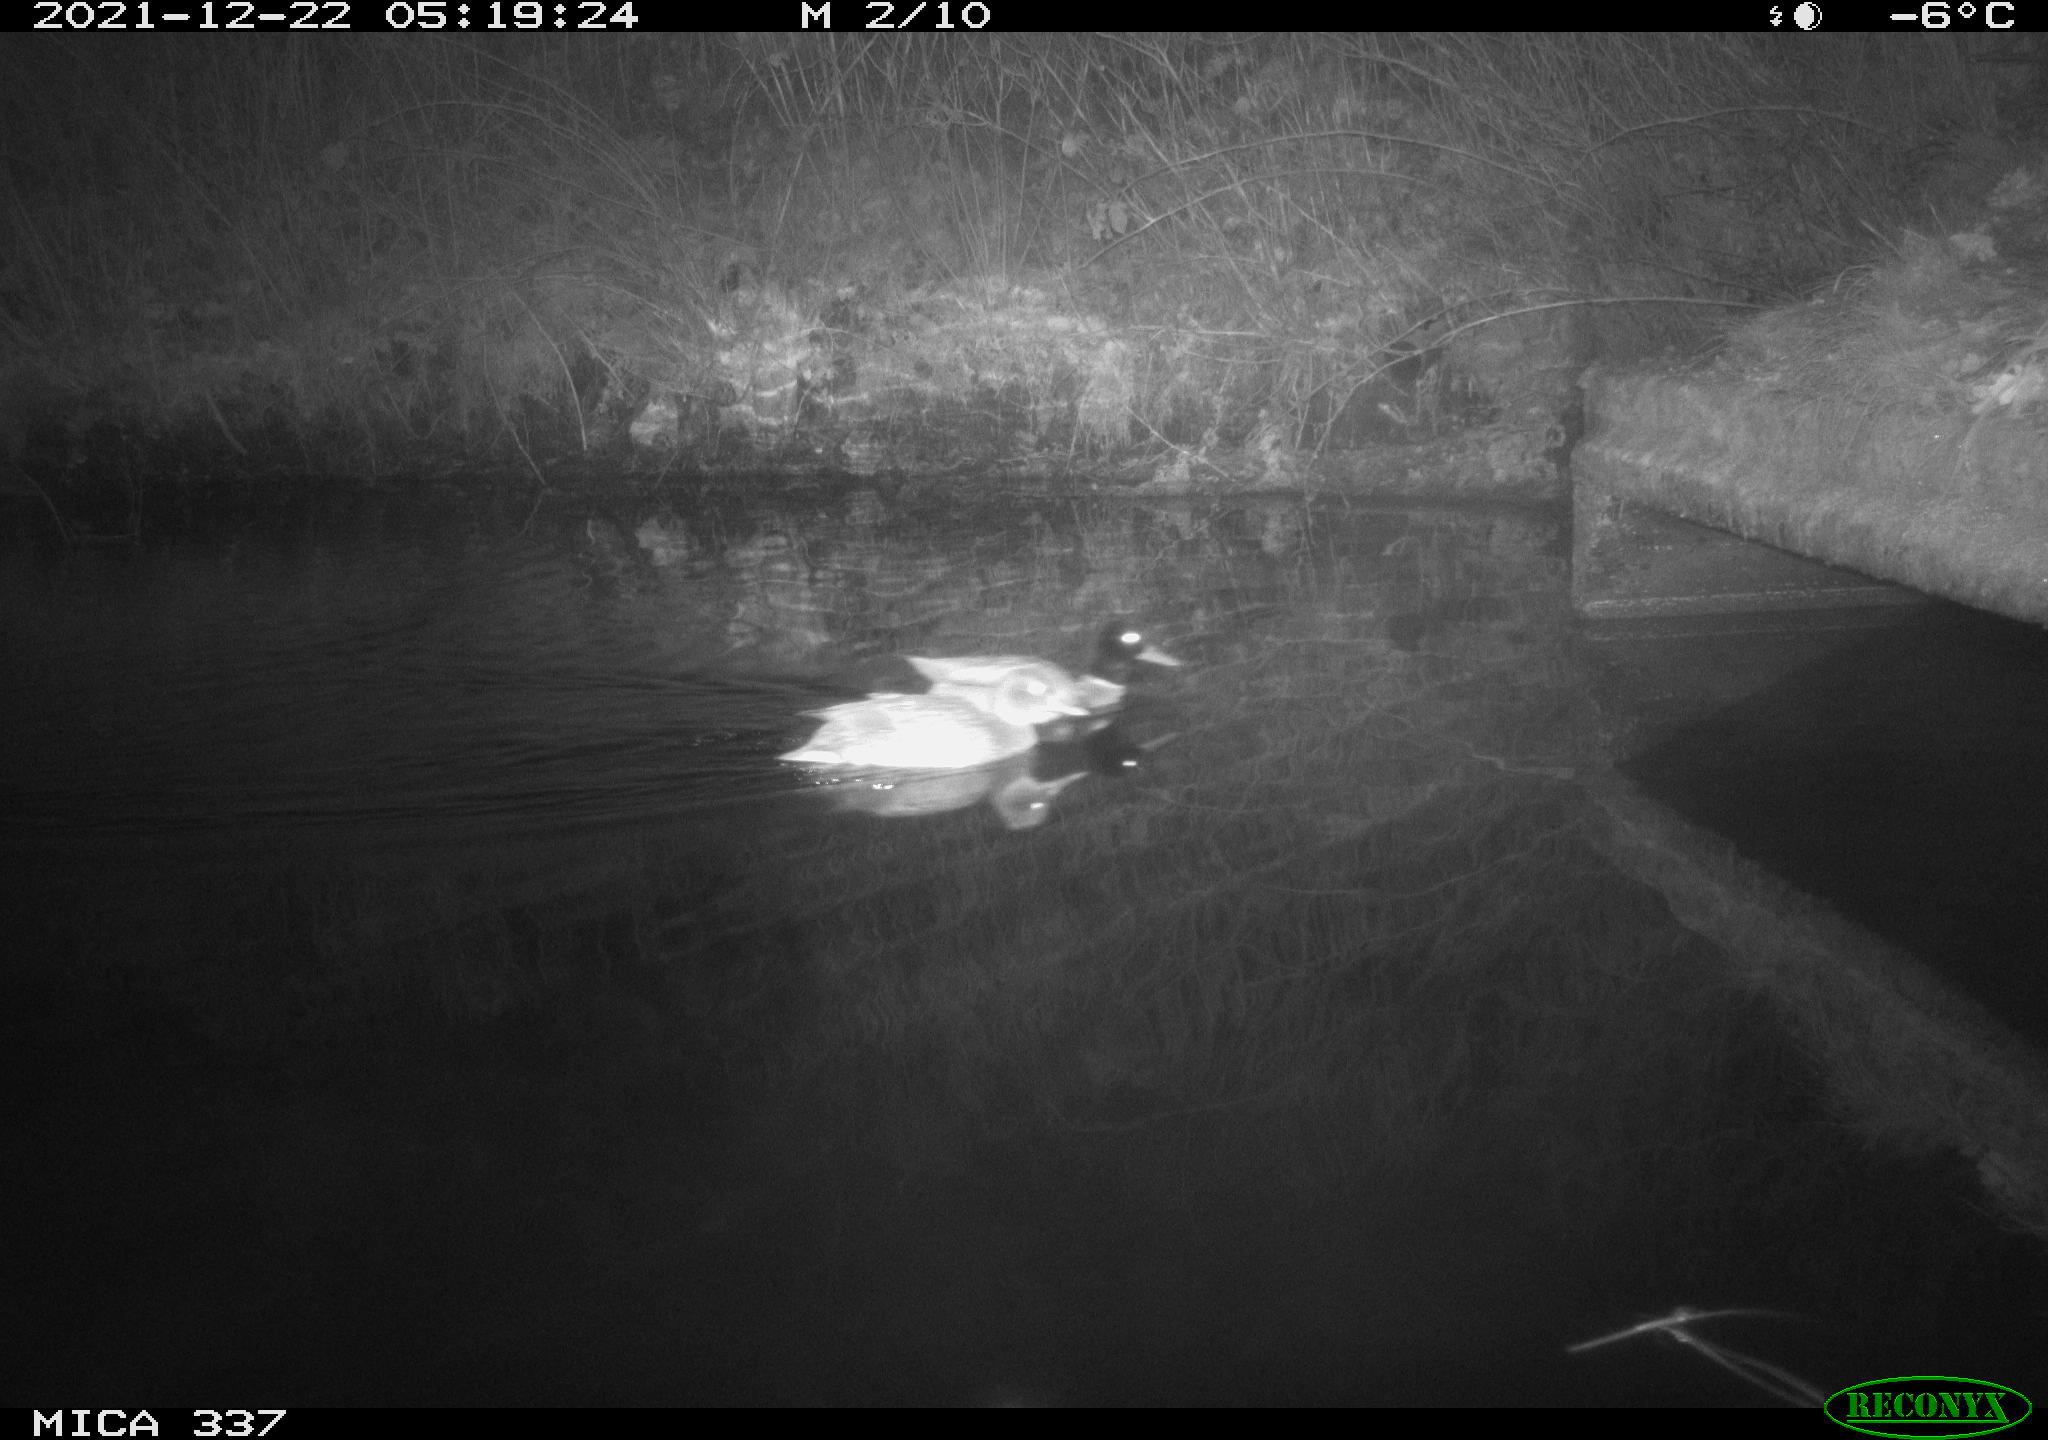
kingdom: Animalia
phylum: Chordata
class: Aves
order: Anseriformes
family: Anatidae
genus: Anas
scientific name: Anas platyrhynchos
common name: Mallard
